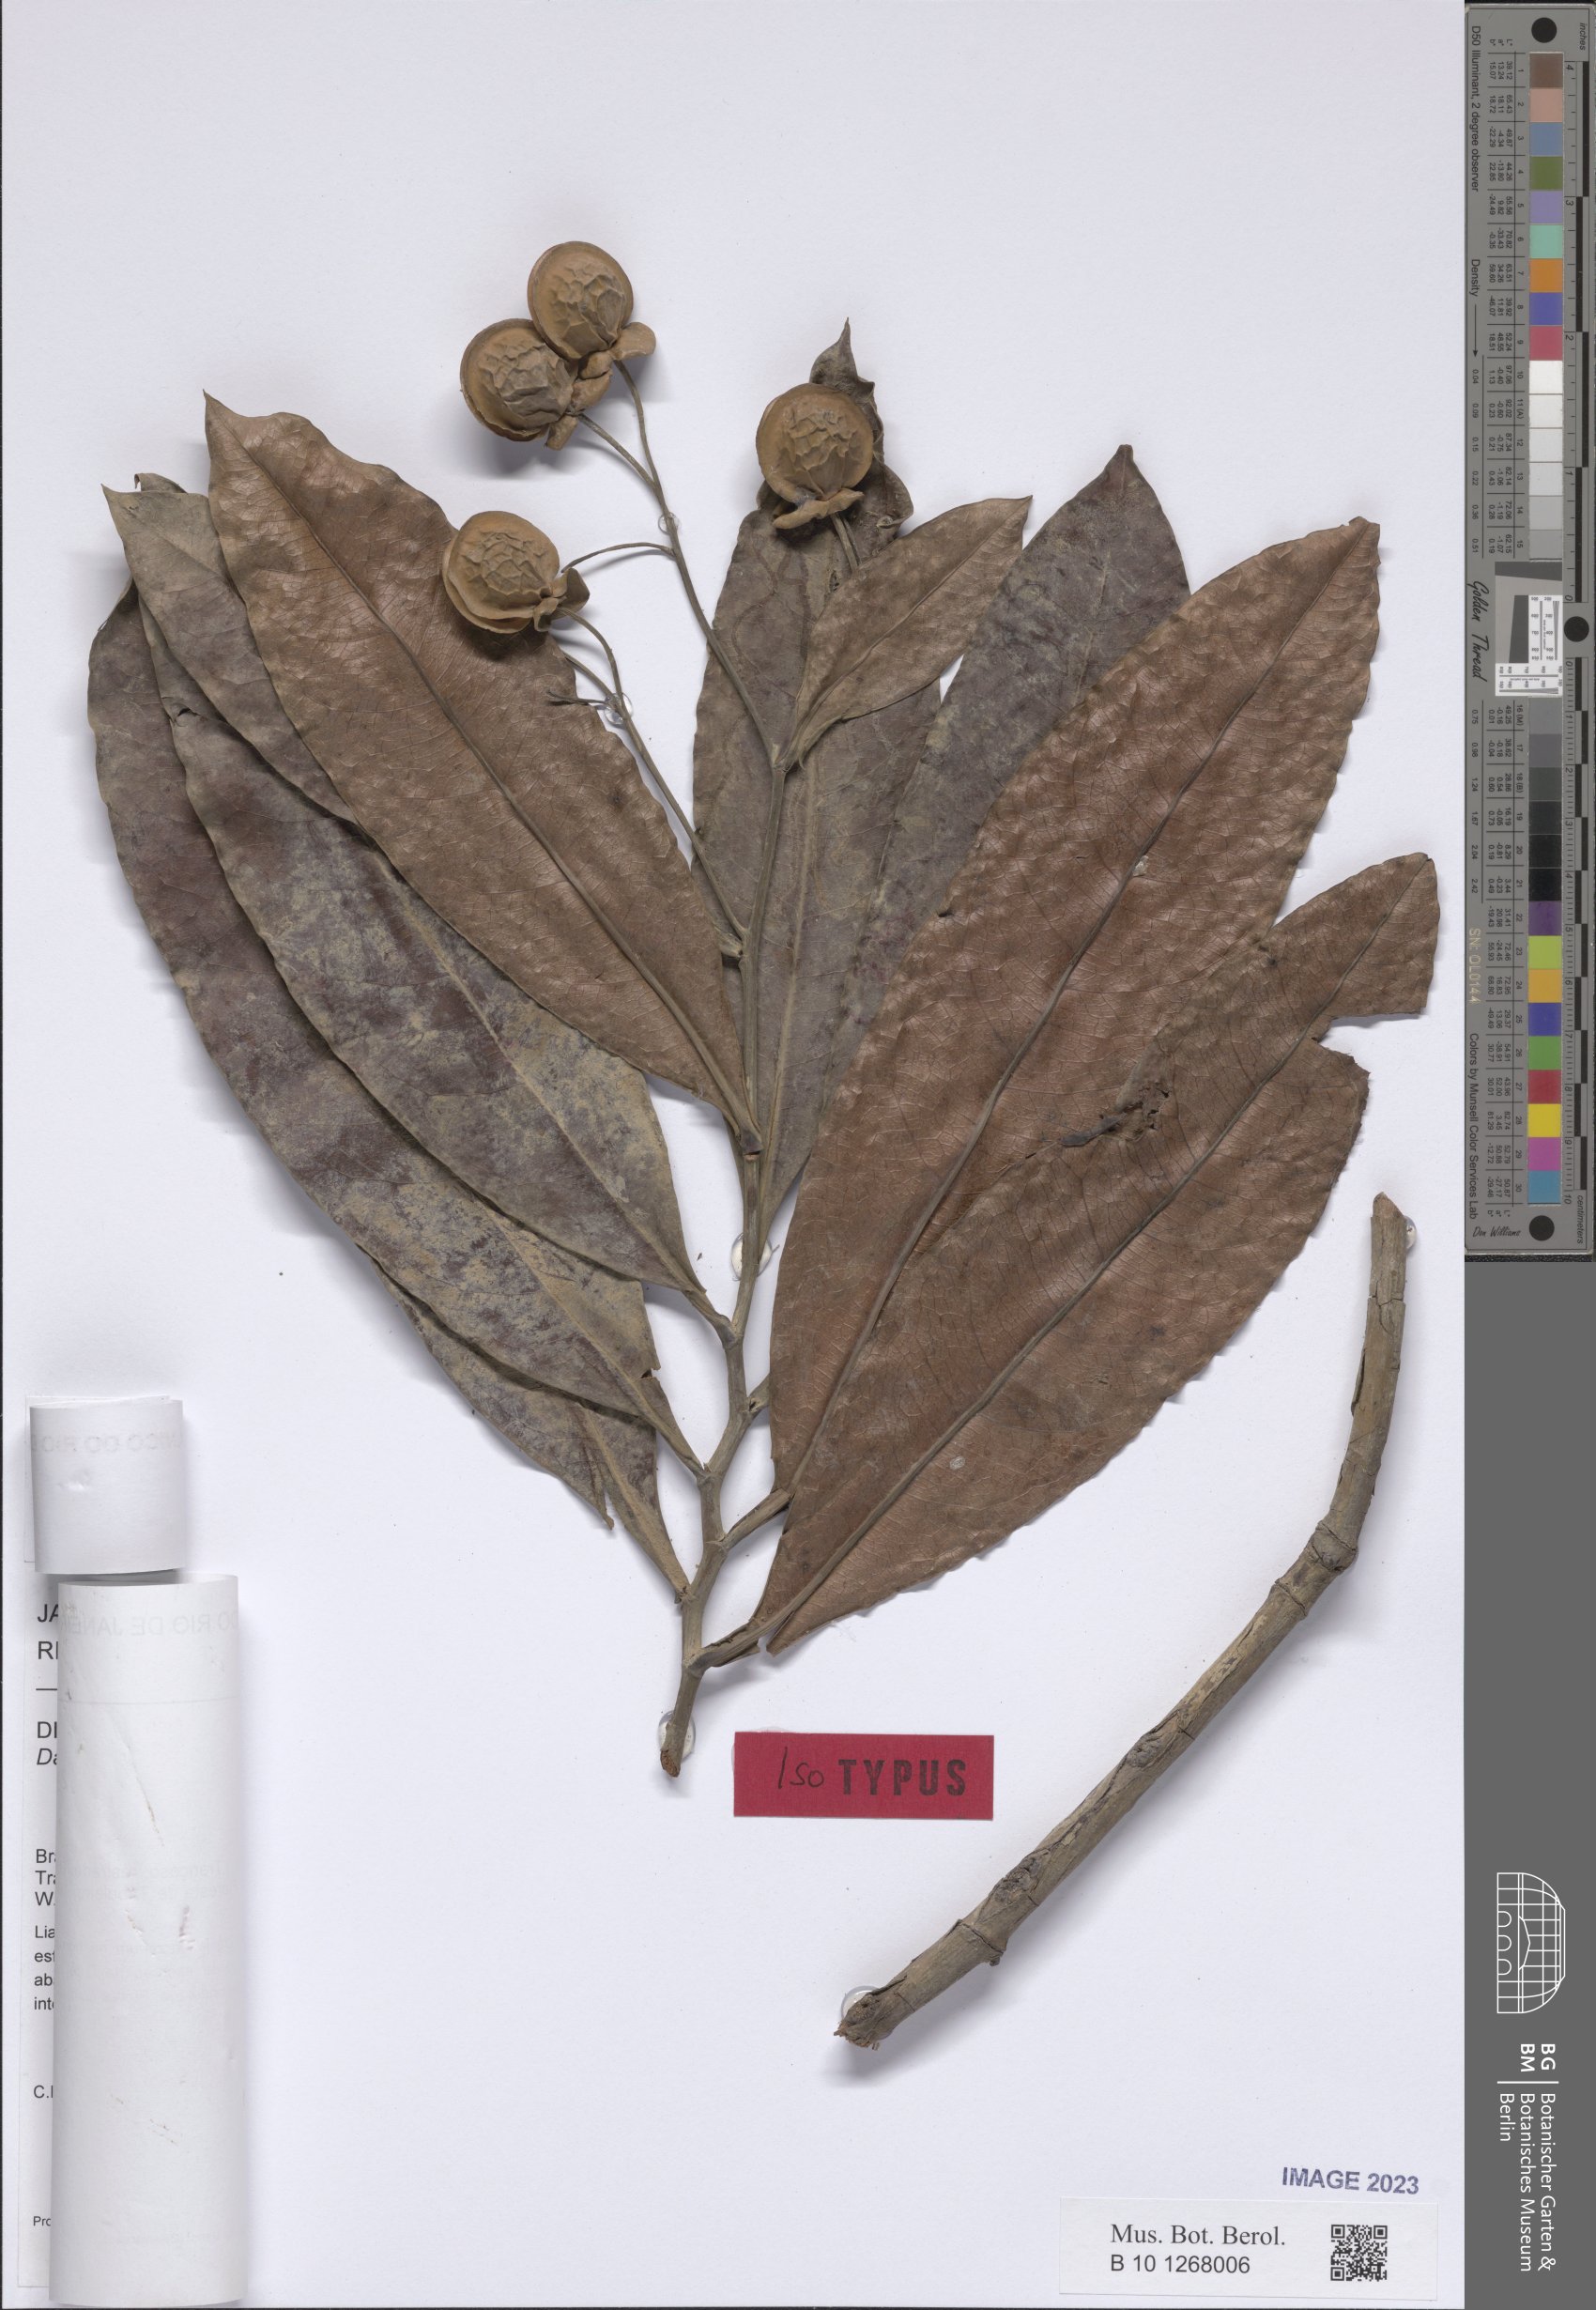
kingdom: Plantae
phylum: Tracheophyta
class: Magnoliopsida
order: Dilleniales
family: Dilleniaceae
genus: Davilla
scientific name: Davilla undulata
